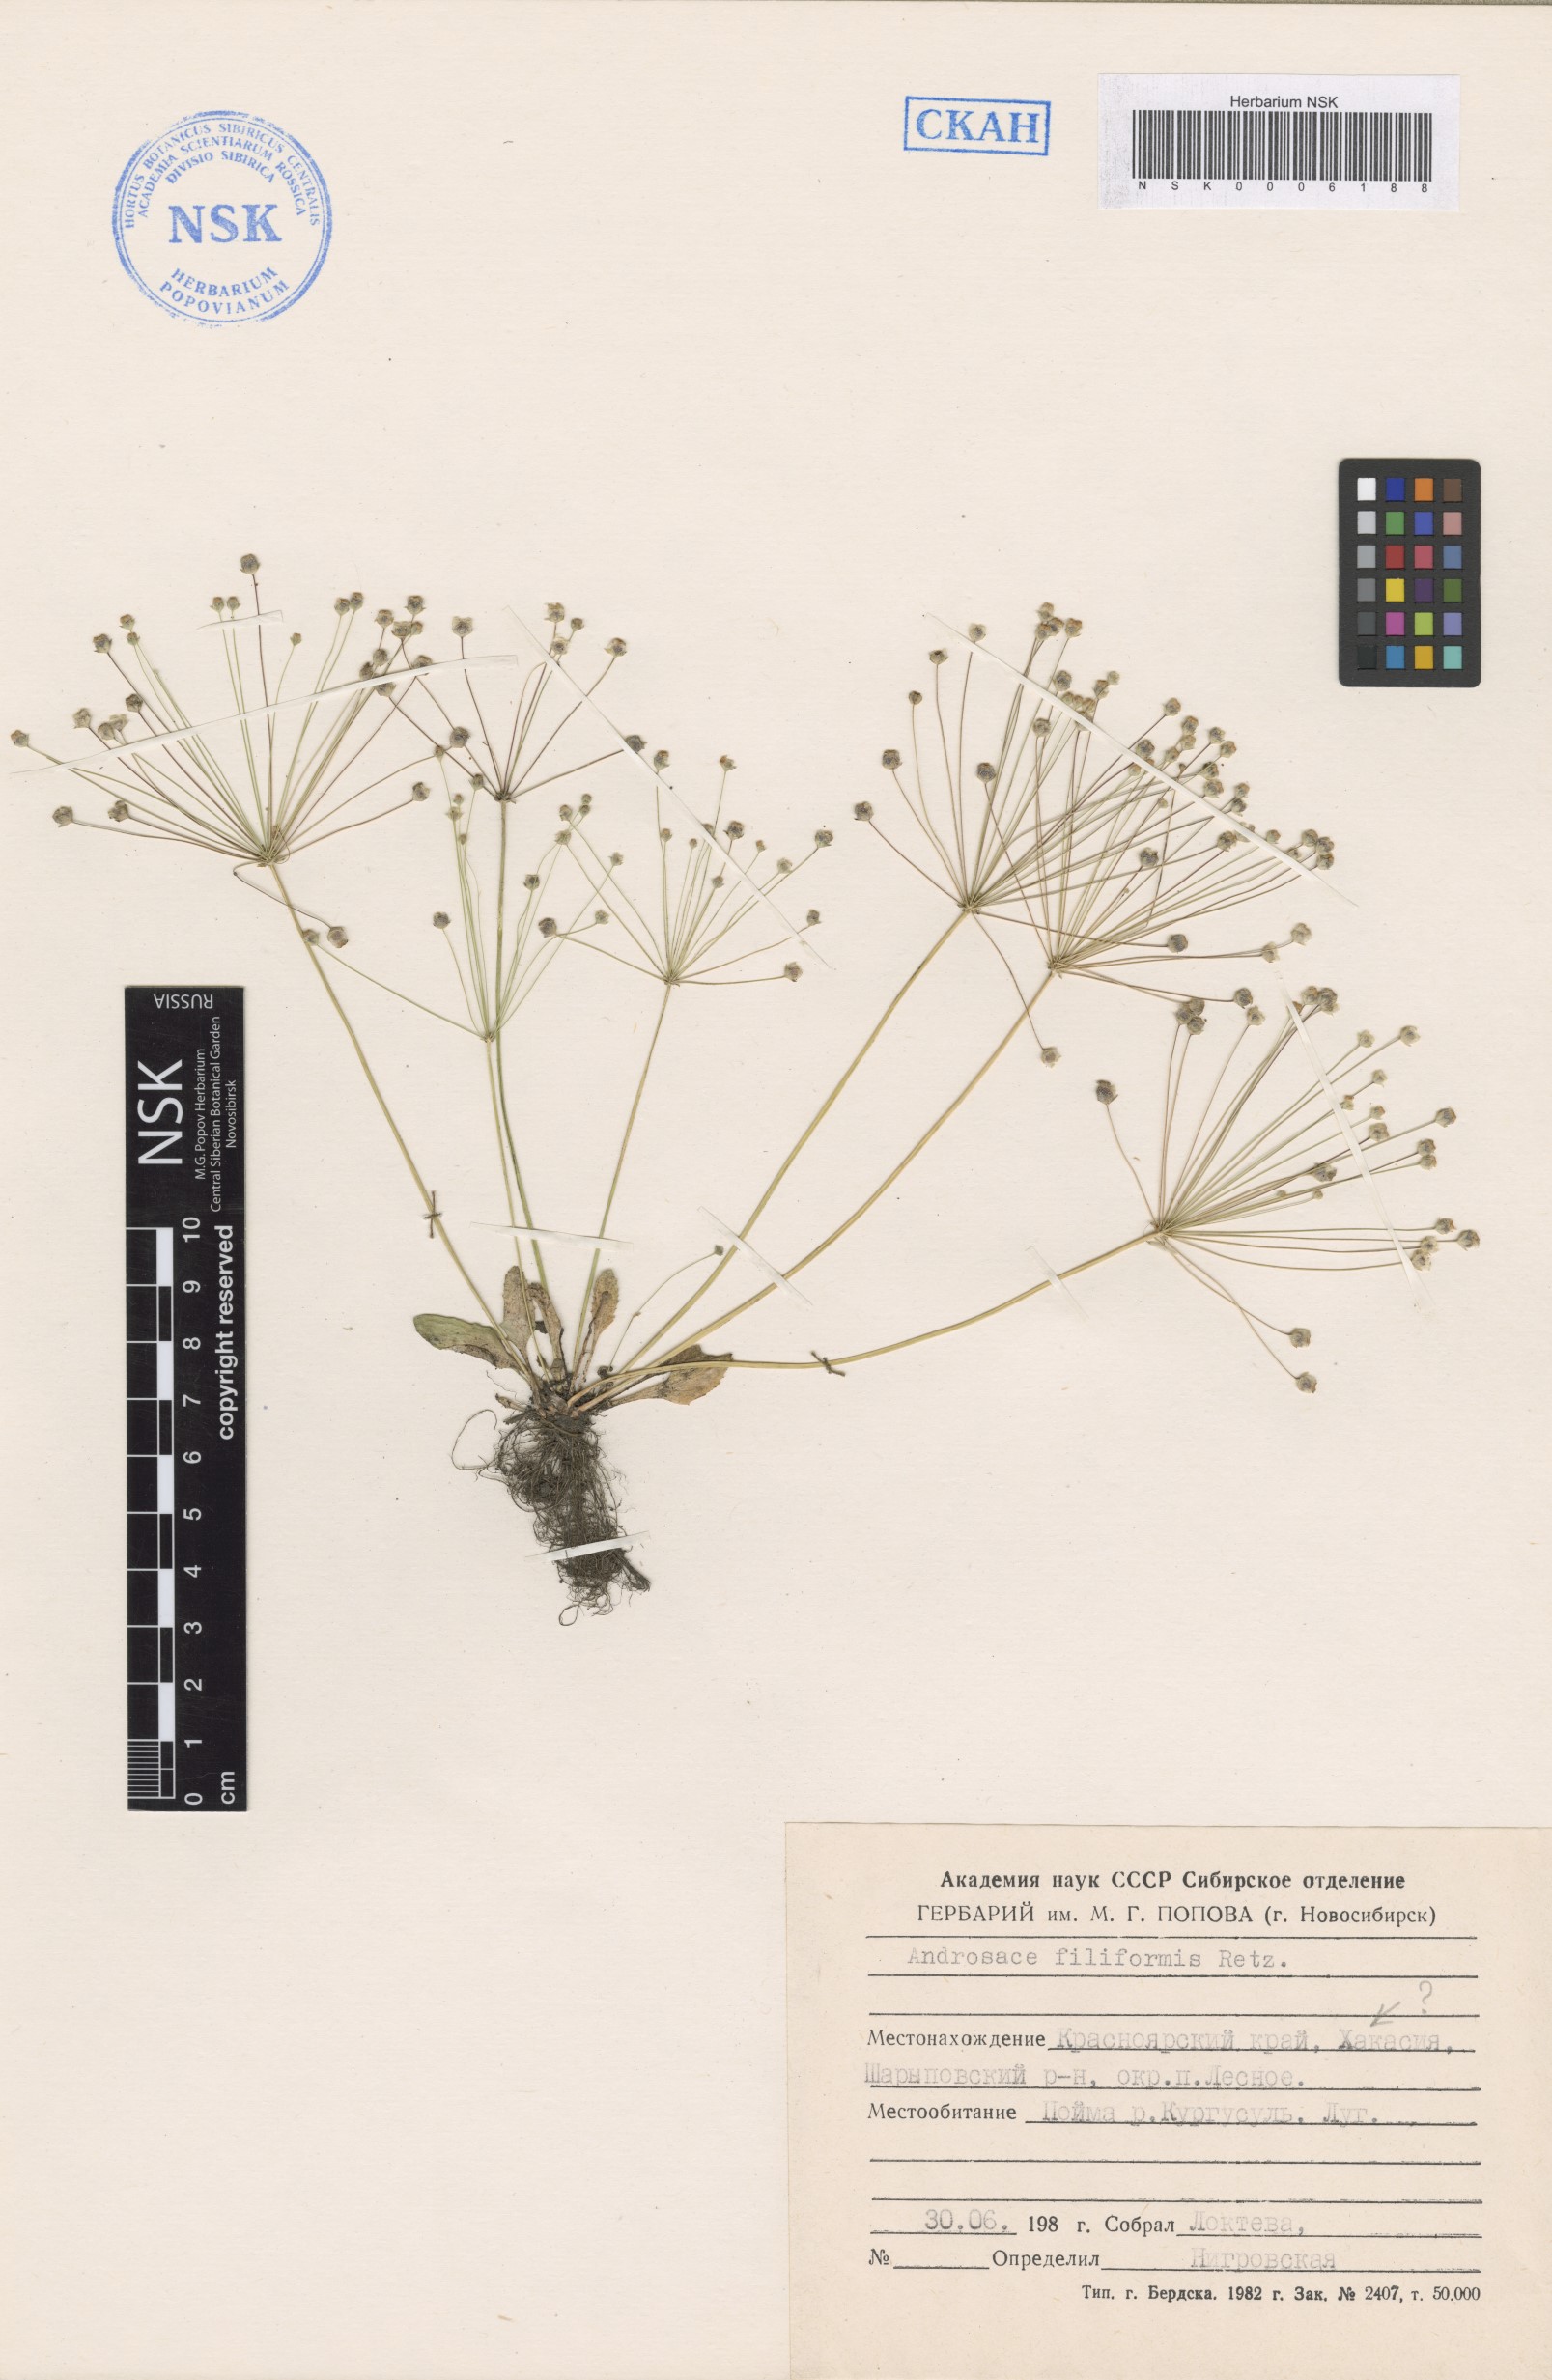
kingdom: Plantae
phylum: Tracheophyta
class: Magnoliopsida
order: Ericales
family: Primulaceae
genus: Androsace
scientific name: Androsace filiformis
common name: Filiform rock jasmine
